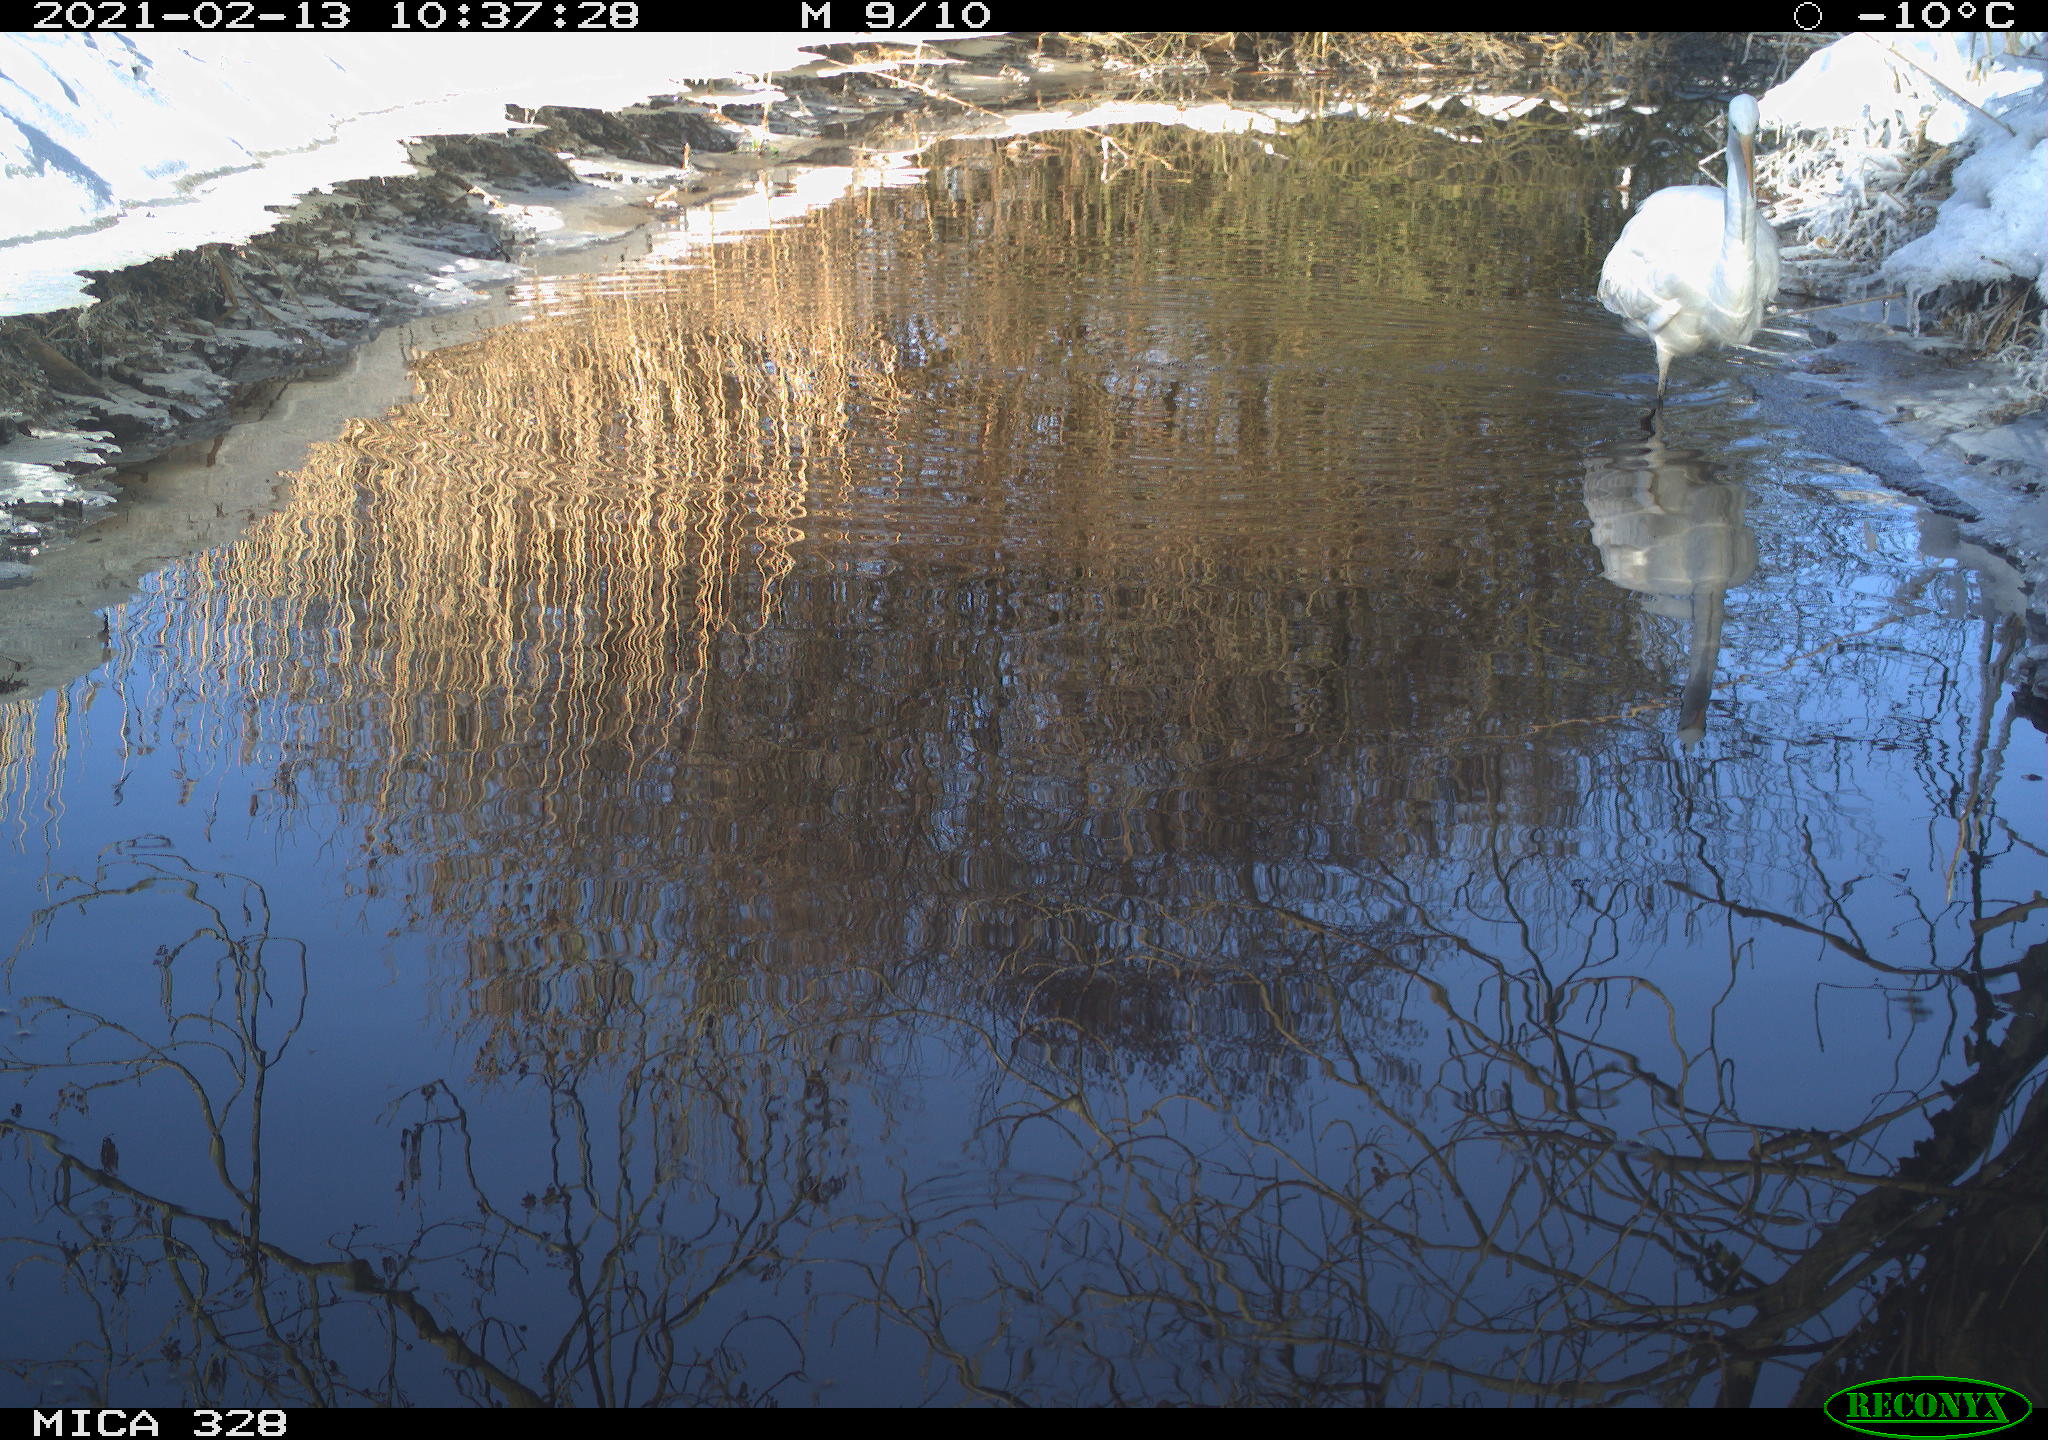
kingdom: Animalia
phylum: Chordata
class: Aves
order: Pelecaniformes
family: Ardeidae
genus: Ardea
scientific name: Ardea alba
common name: Great egret
